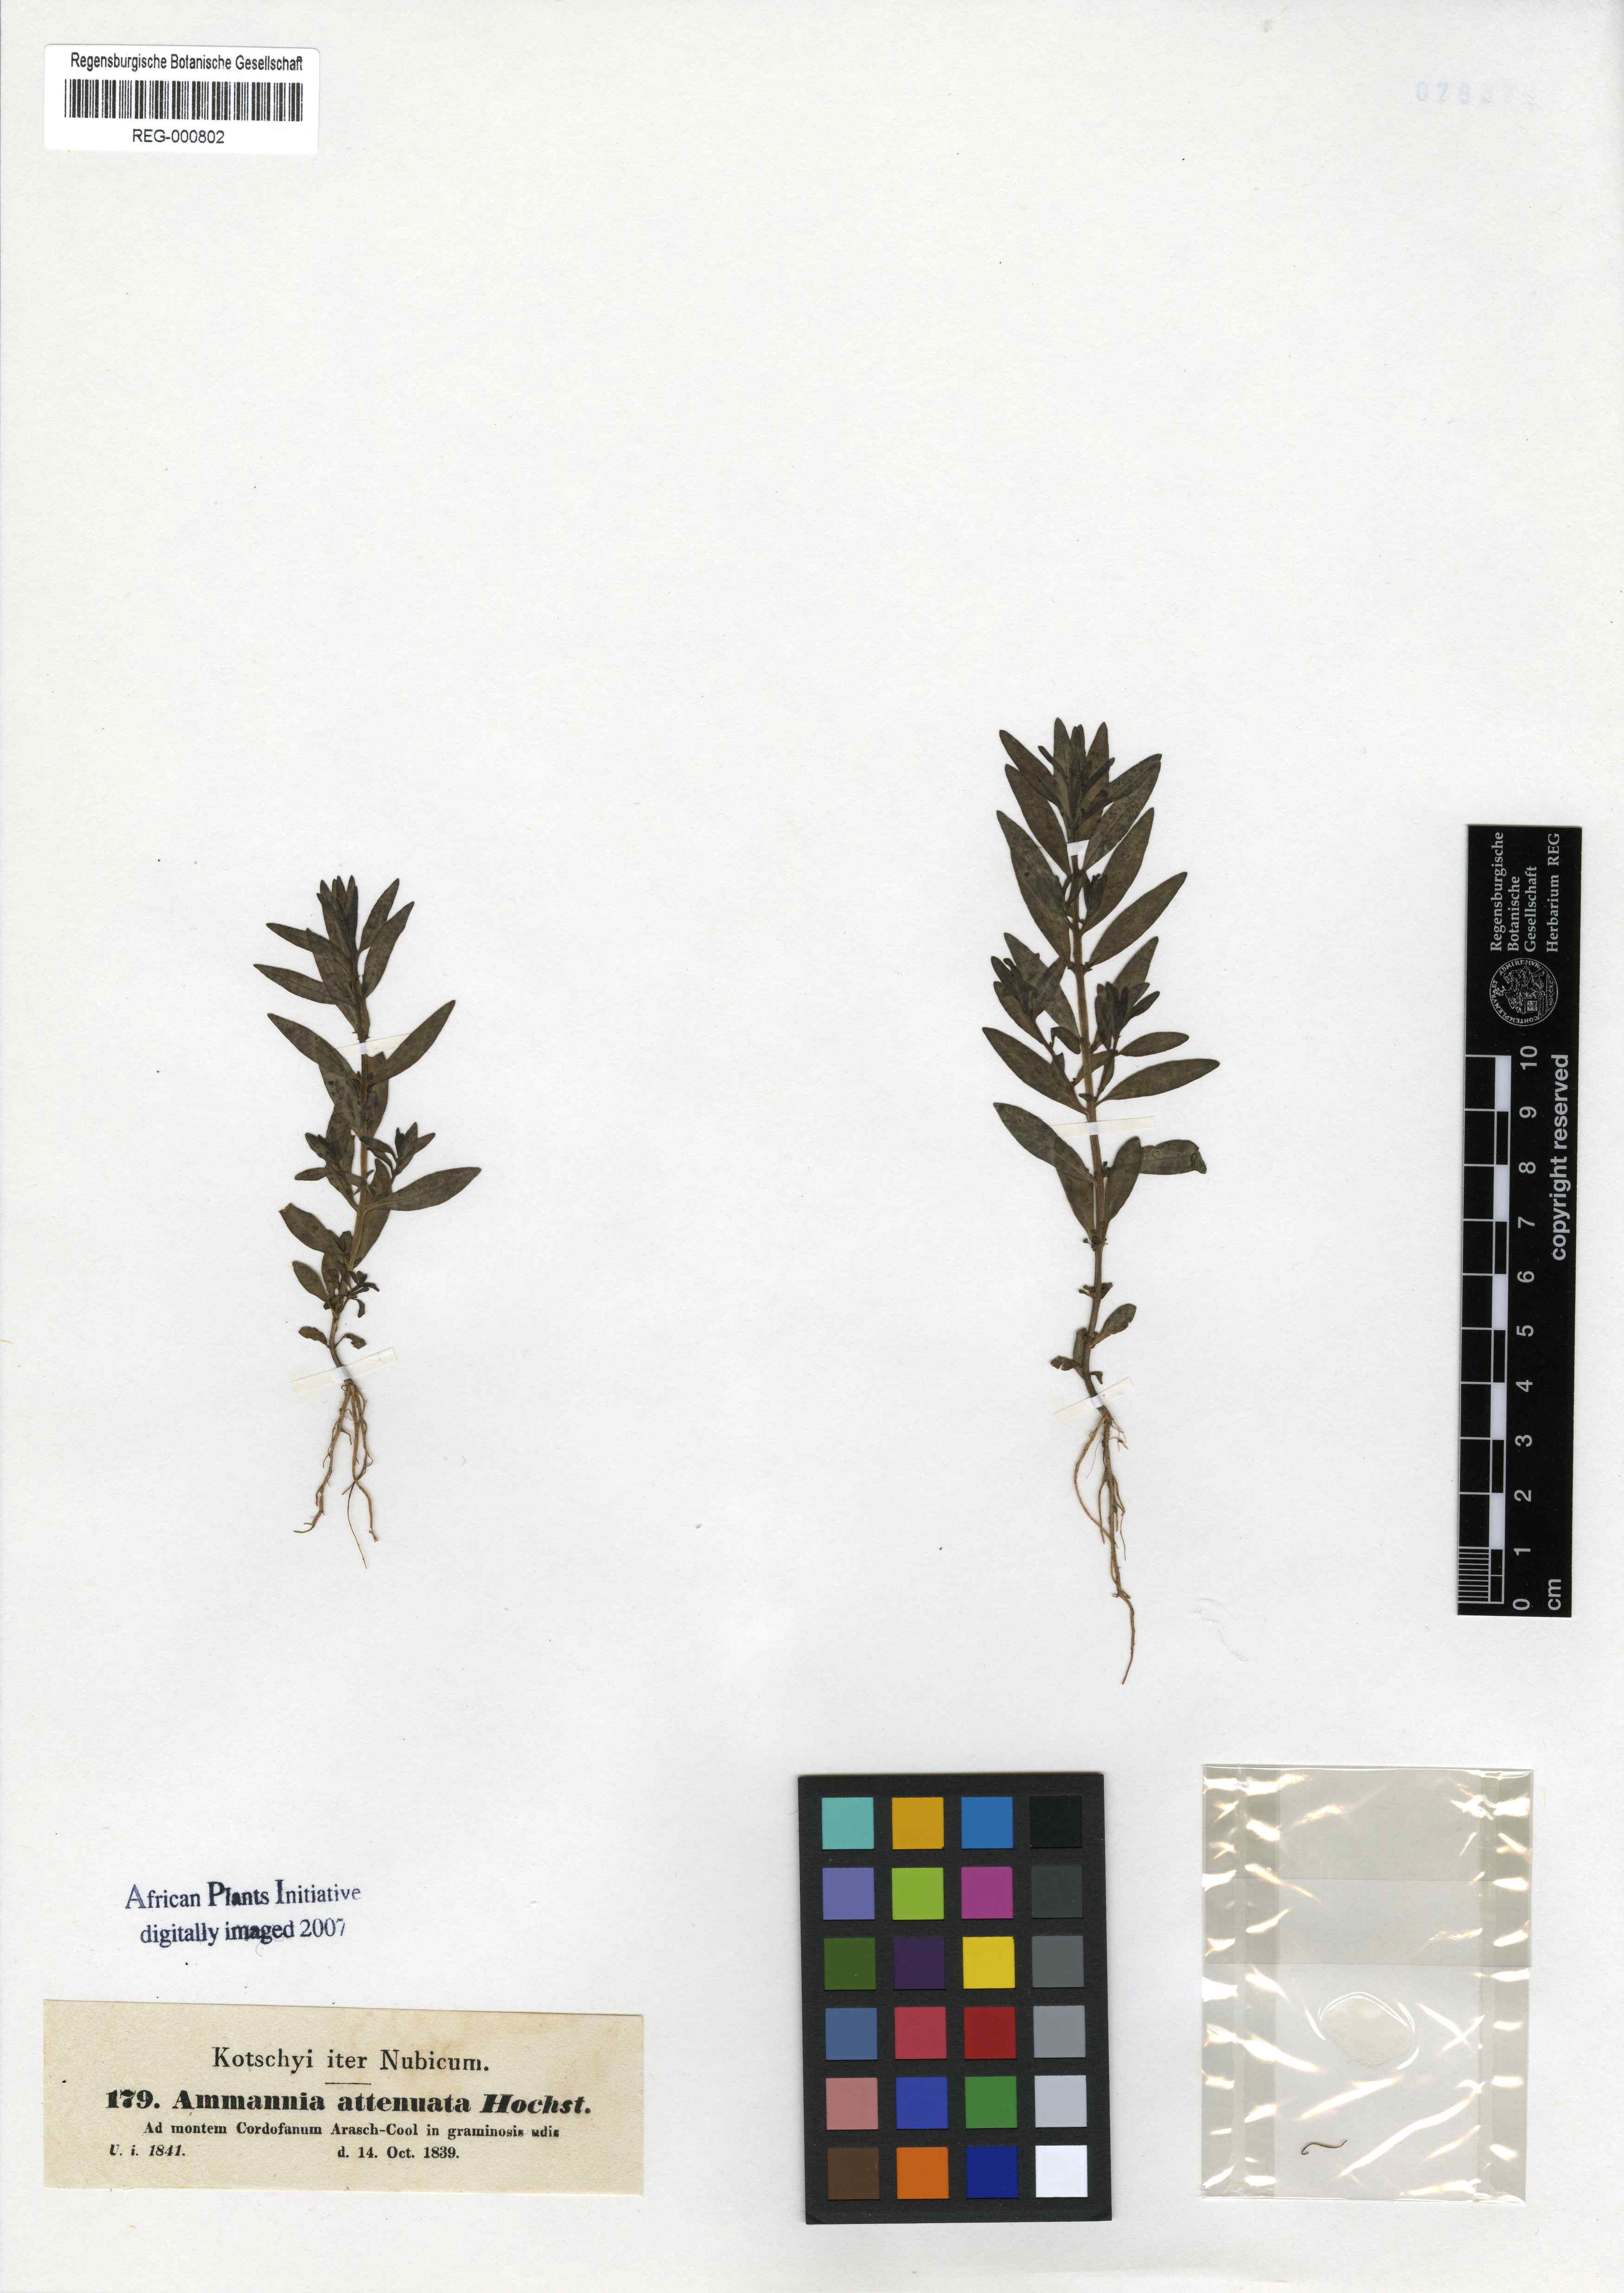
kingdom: Plantae
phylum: Tracheophyta
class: Magnoliopsida
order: Myrtales
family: Lythraceae
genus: Ammannia
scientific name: Ammannia baccifera
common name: Blistering ammania
